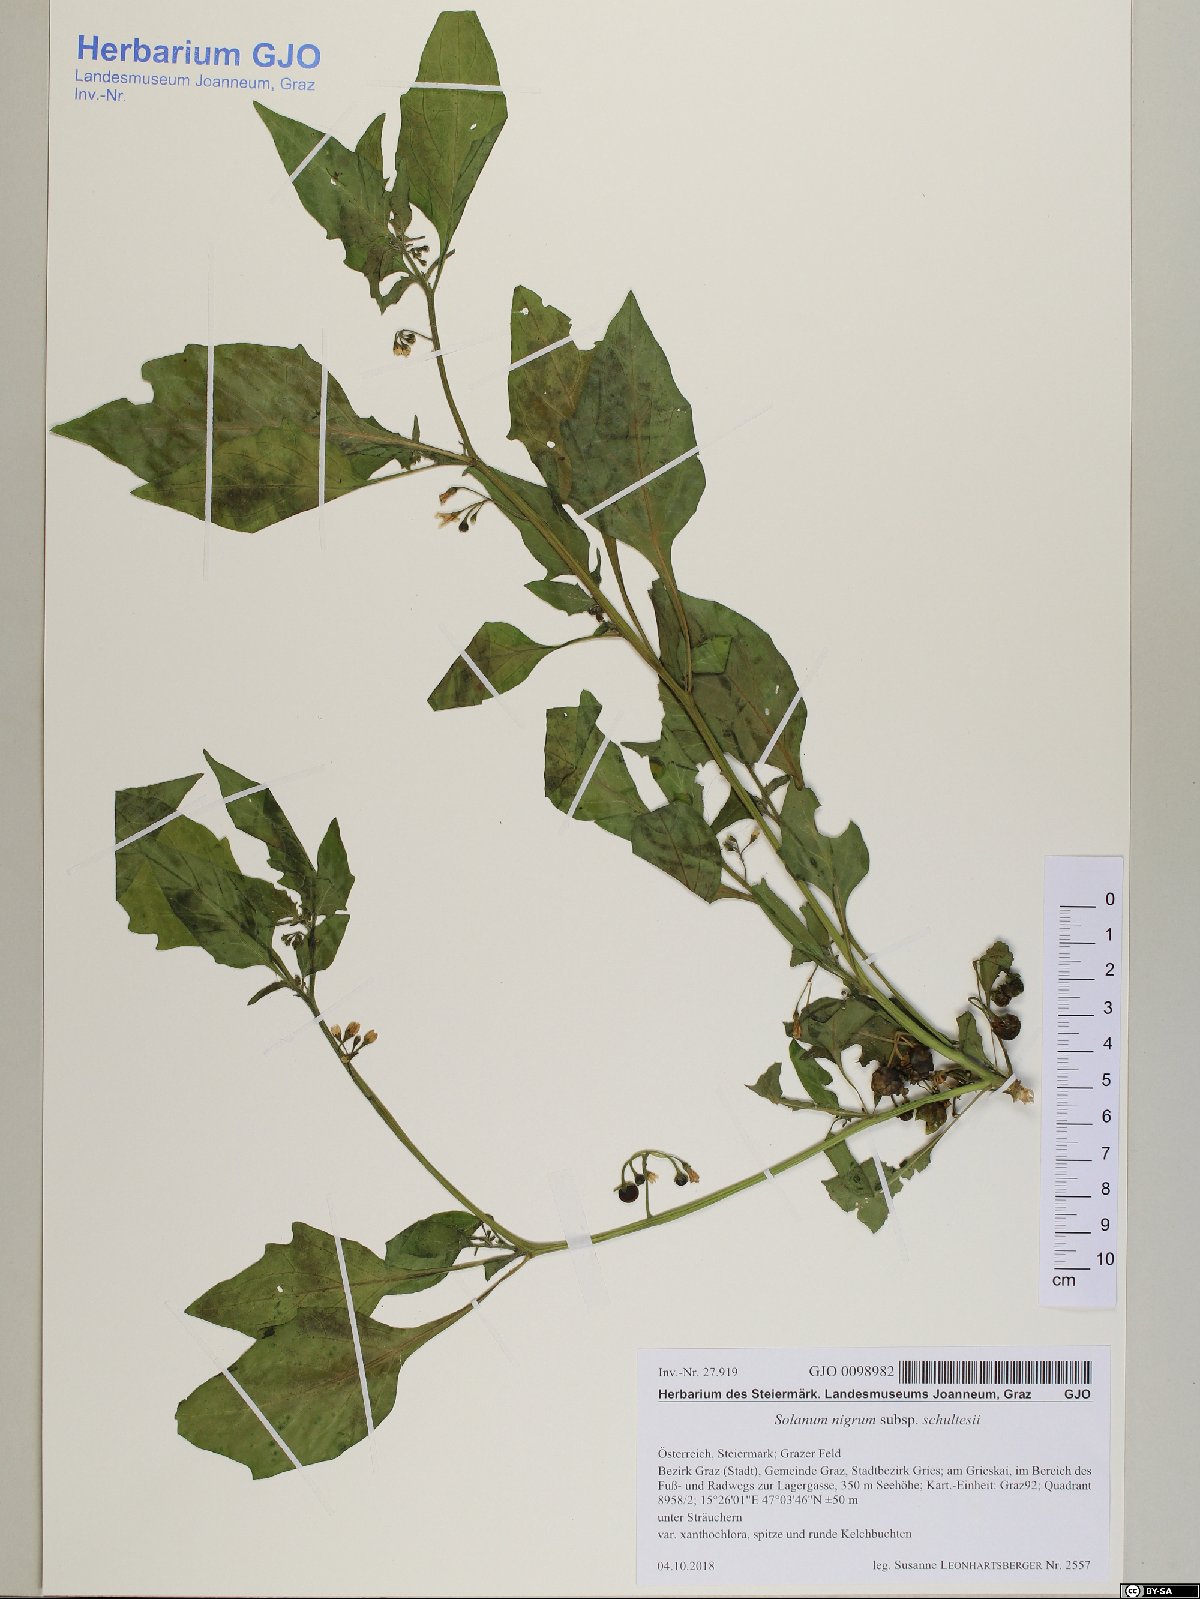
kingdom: Plantae
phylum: Tracheophyta
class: Magnoliopsida
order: Solanales
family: Solanaceae
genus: Solanum
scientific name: Solanum decipiens
